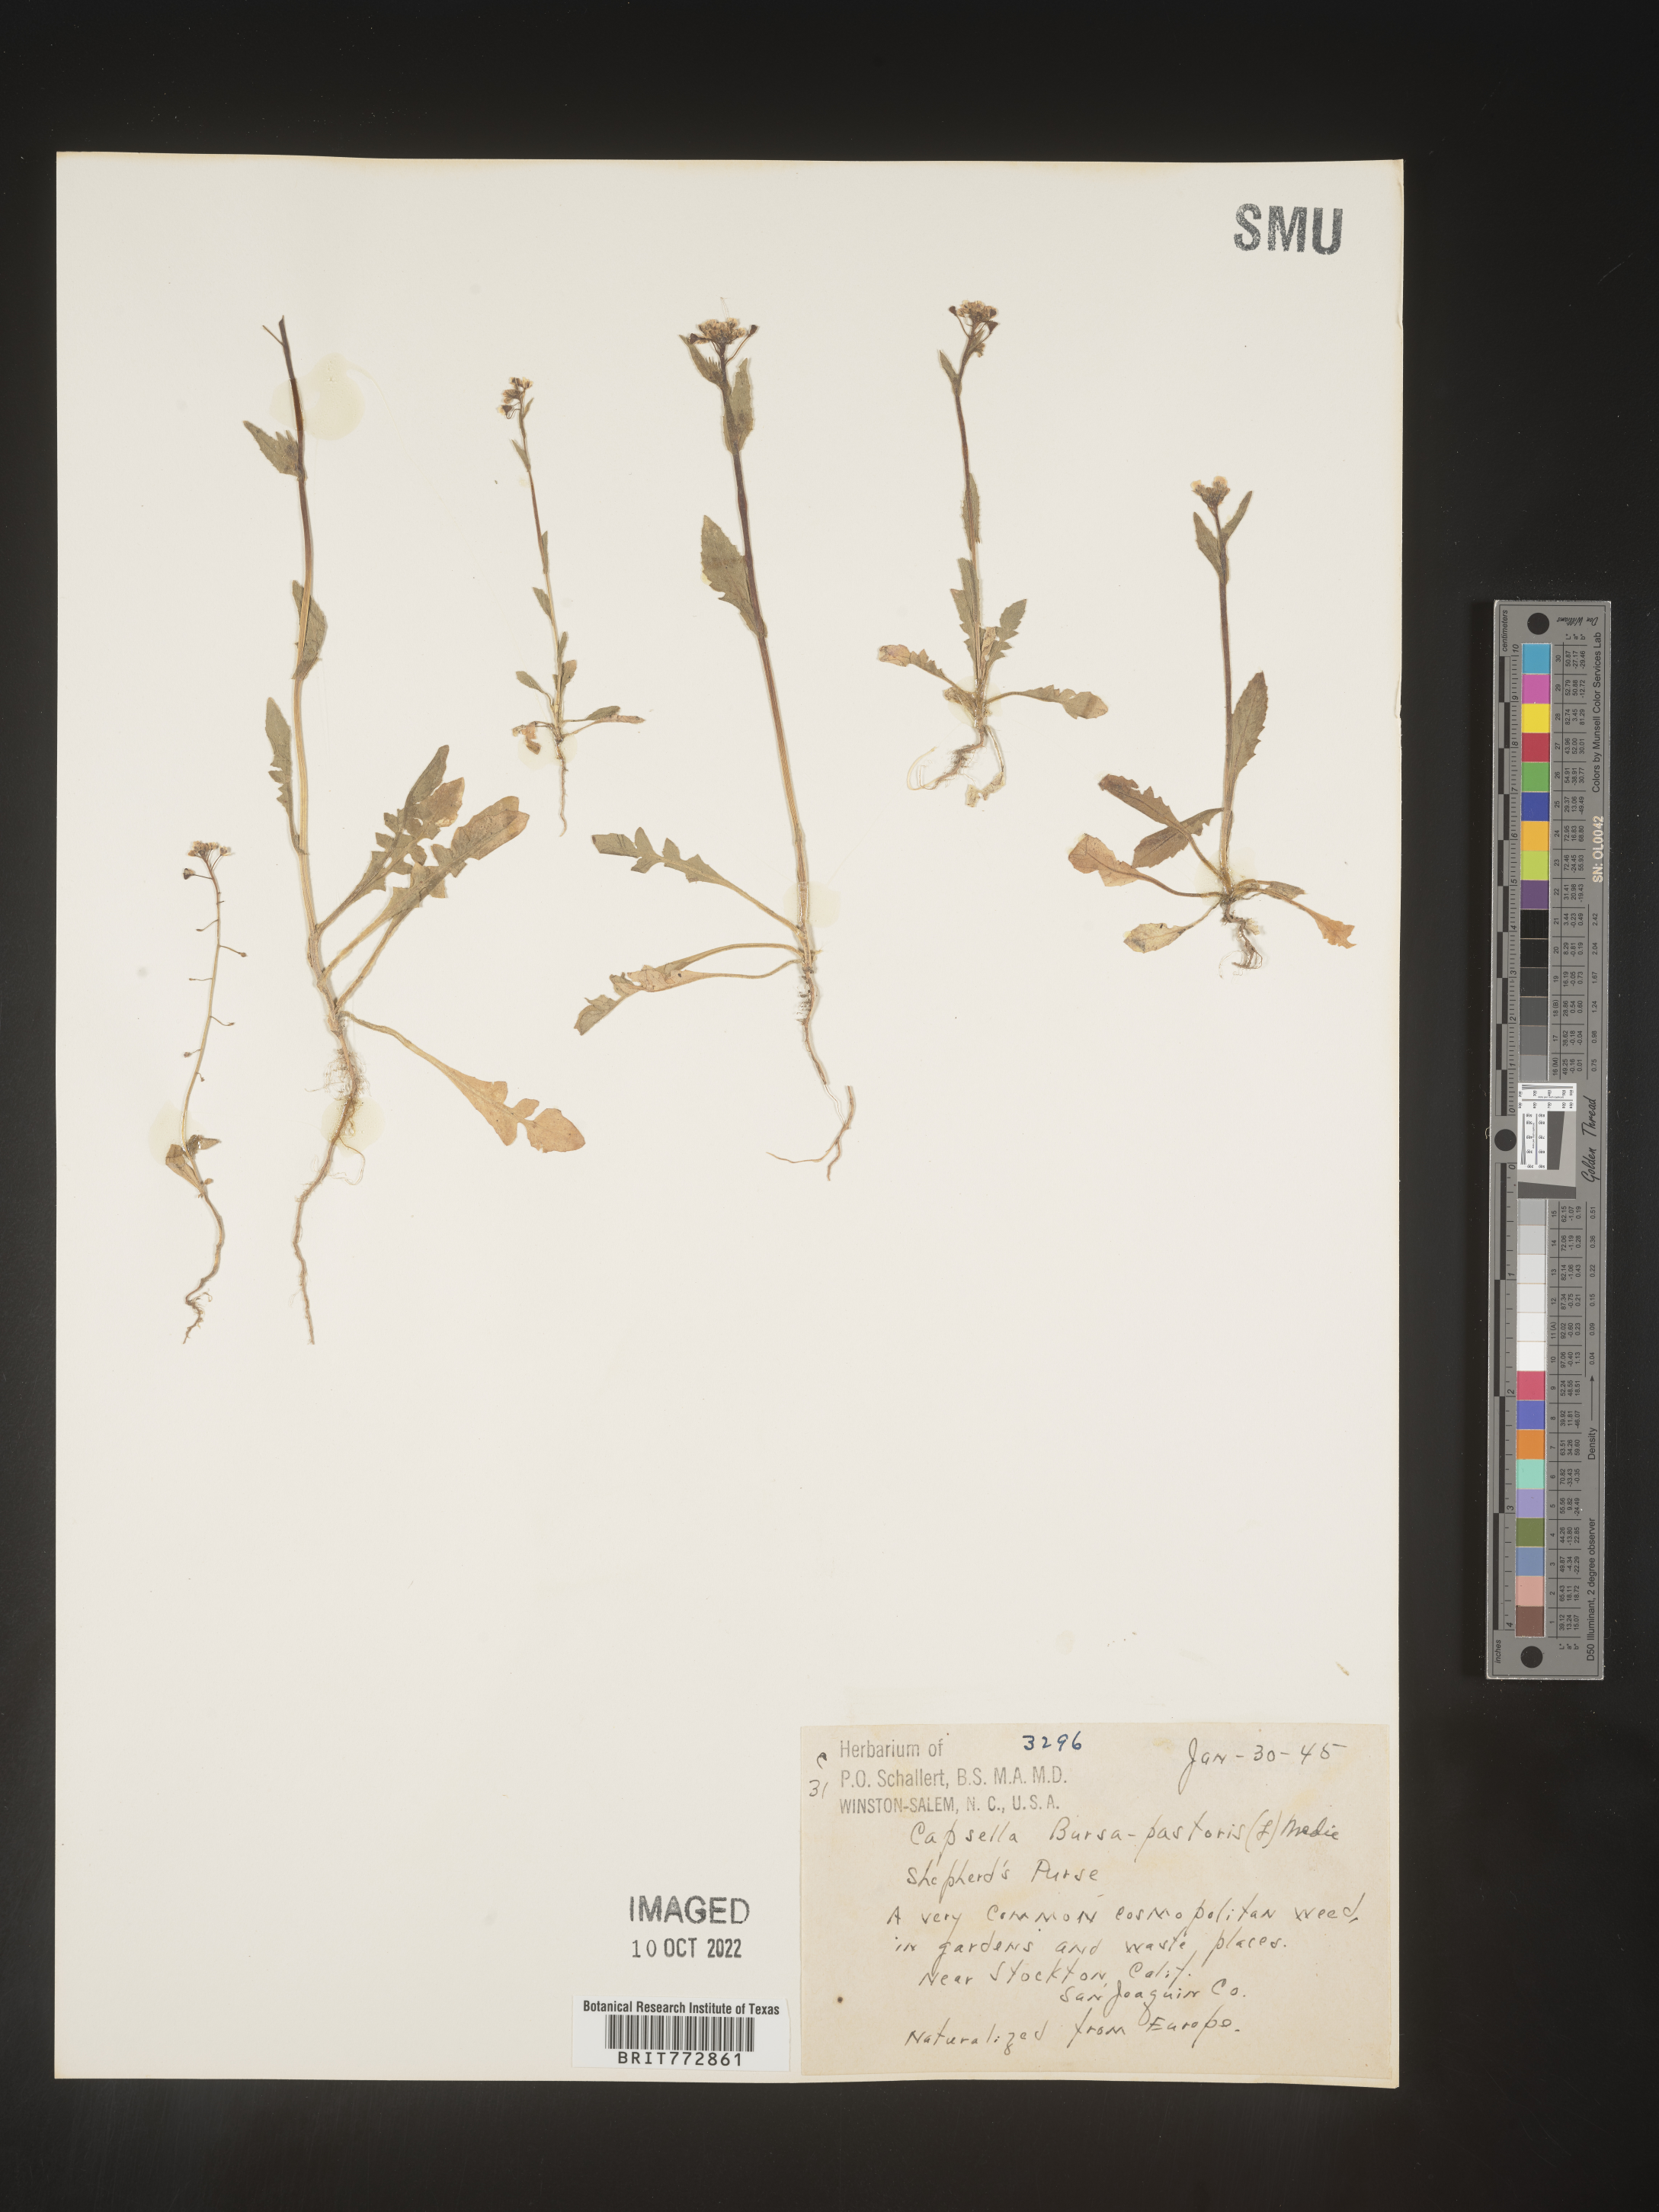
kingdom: Plantae
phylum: Tracheophyta
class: Magnoliopsida
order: Brassicales
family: Brassicaceae
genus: Capsella
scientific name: Capsella bursa-pastoris
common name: Shepherd's purse
